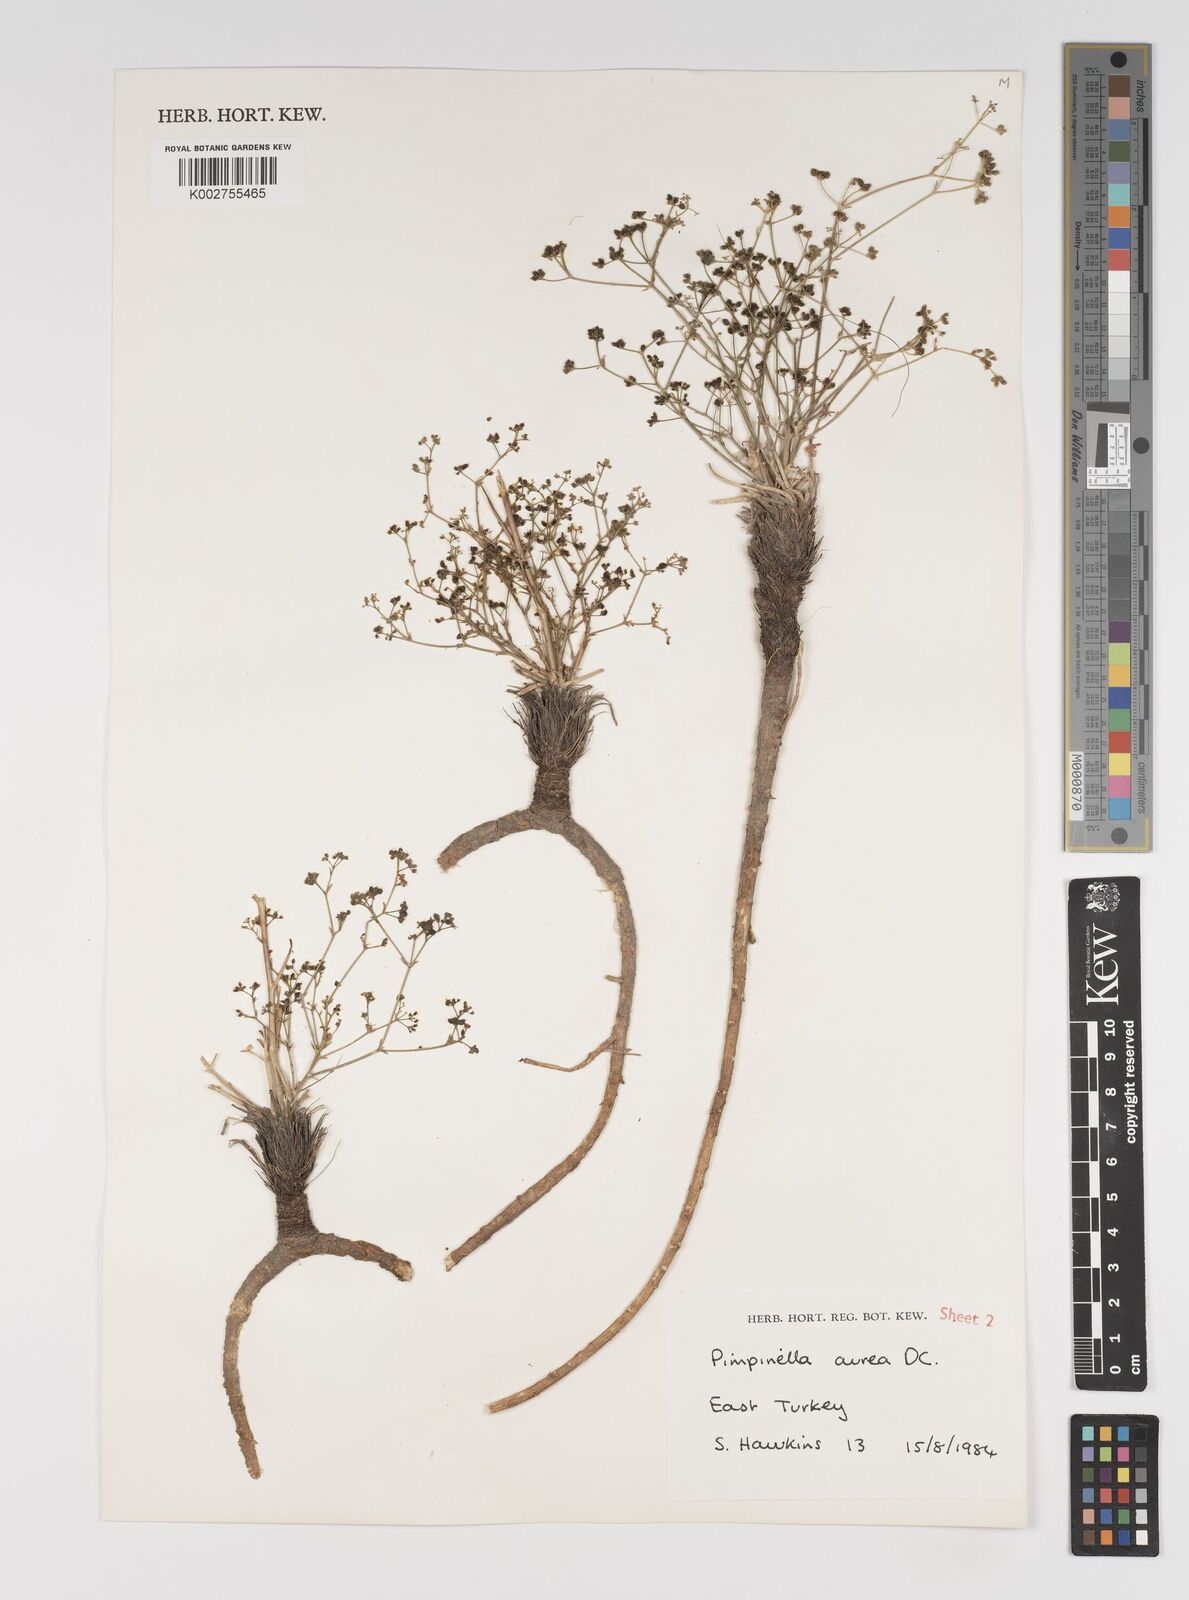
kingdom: Plantae
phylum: Tracheophyta
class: Magnoliopsida
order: Apiales
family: Apiaceae
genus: Pimpinella
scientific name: Pimpinella aurea
